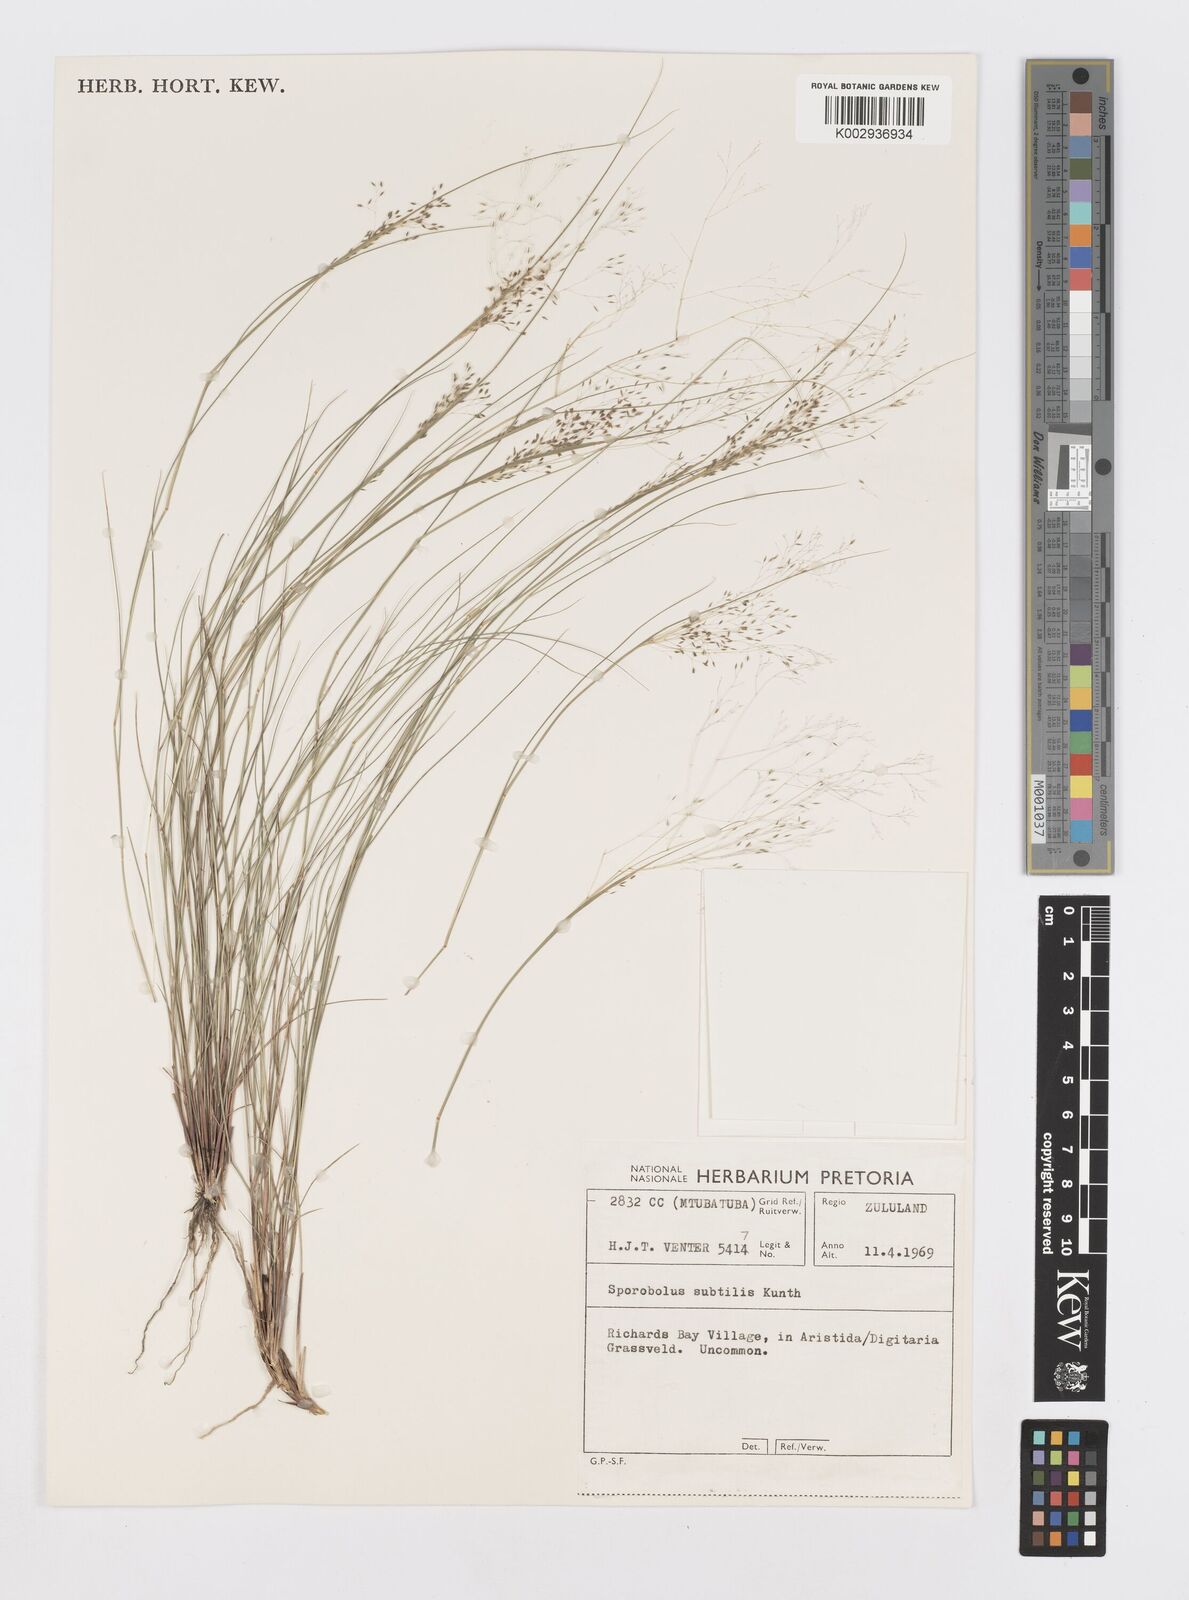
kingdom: Plantae
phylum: Tracheophyta
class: Liliopsida
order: Poales
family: Poaceae
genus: Sporobolus
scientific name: Sporobolus subtilis
